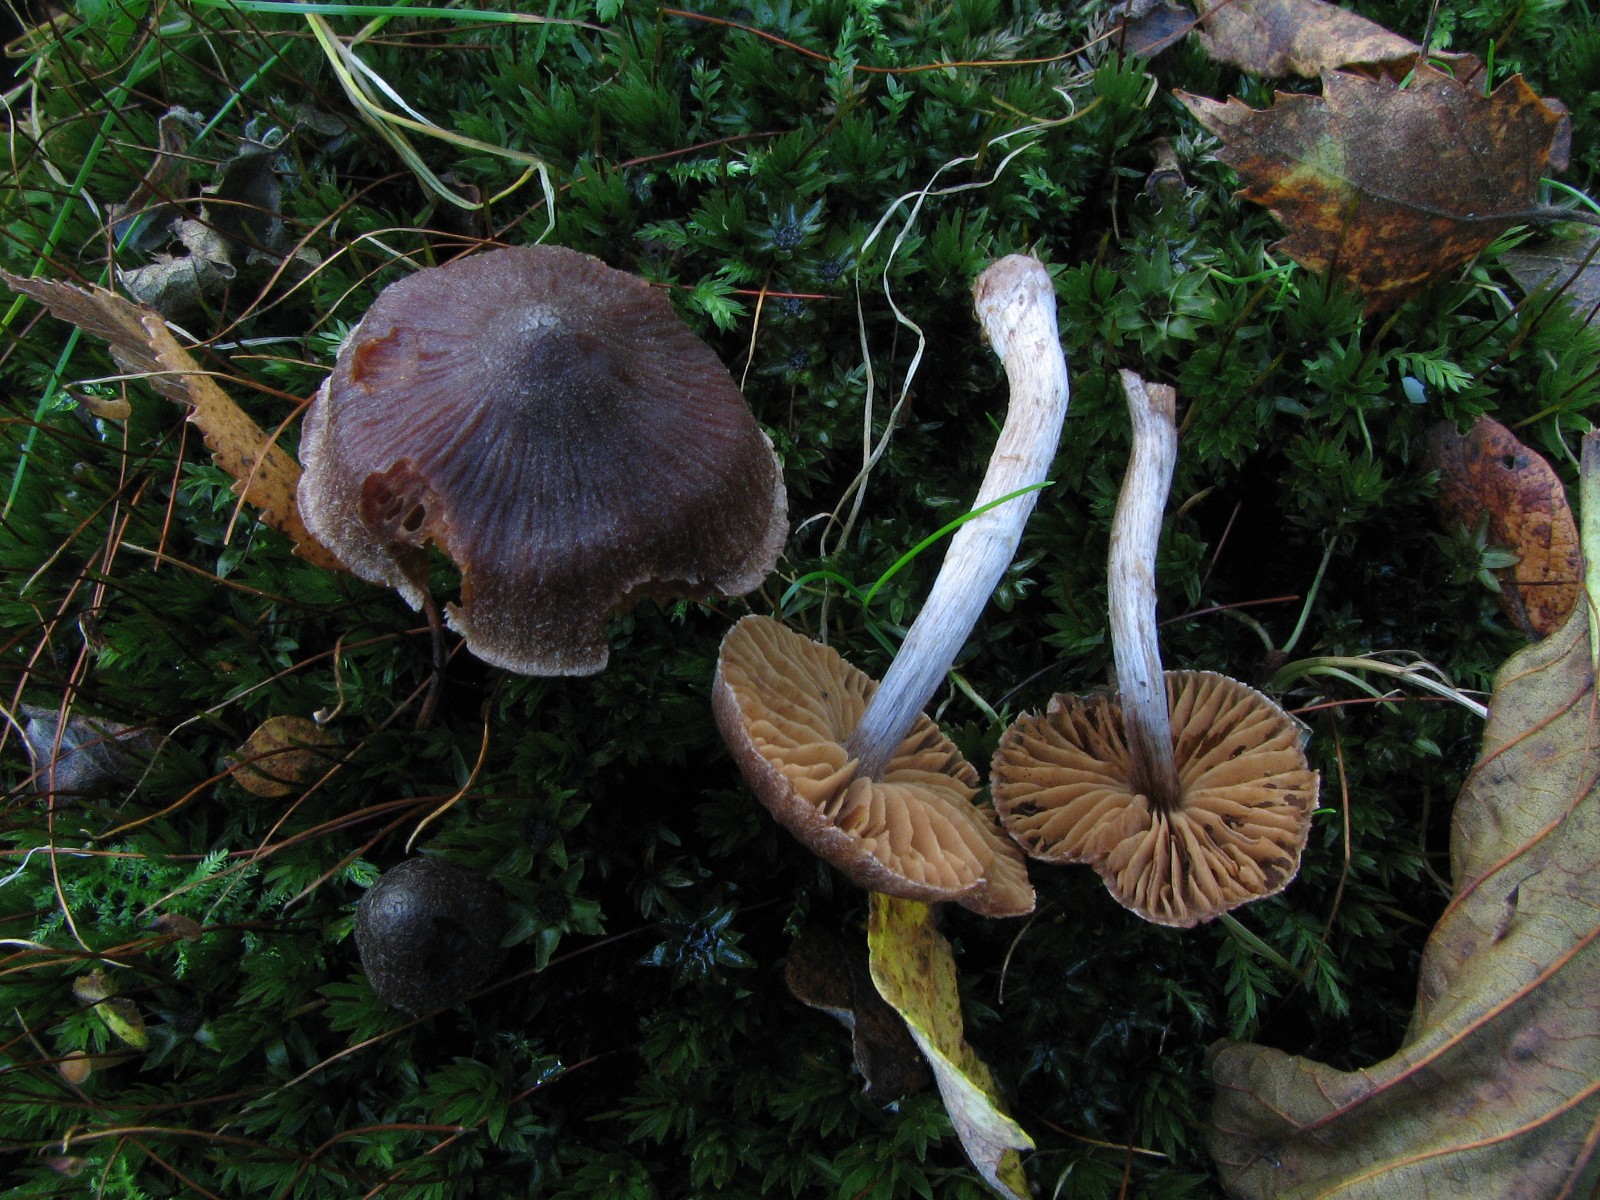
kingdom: Fungi
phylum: Basidiomycota
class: Agaricomycetes
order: Agaricales
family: Cortinariaceae
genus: Cortinarius
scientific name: Cortinarius hirtus
